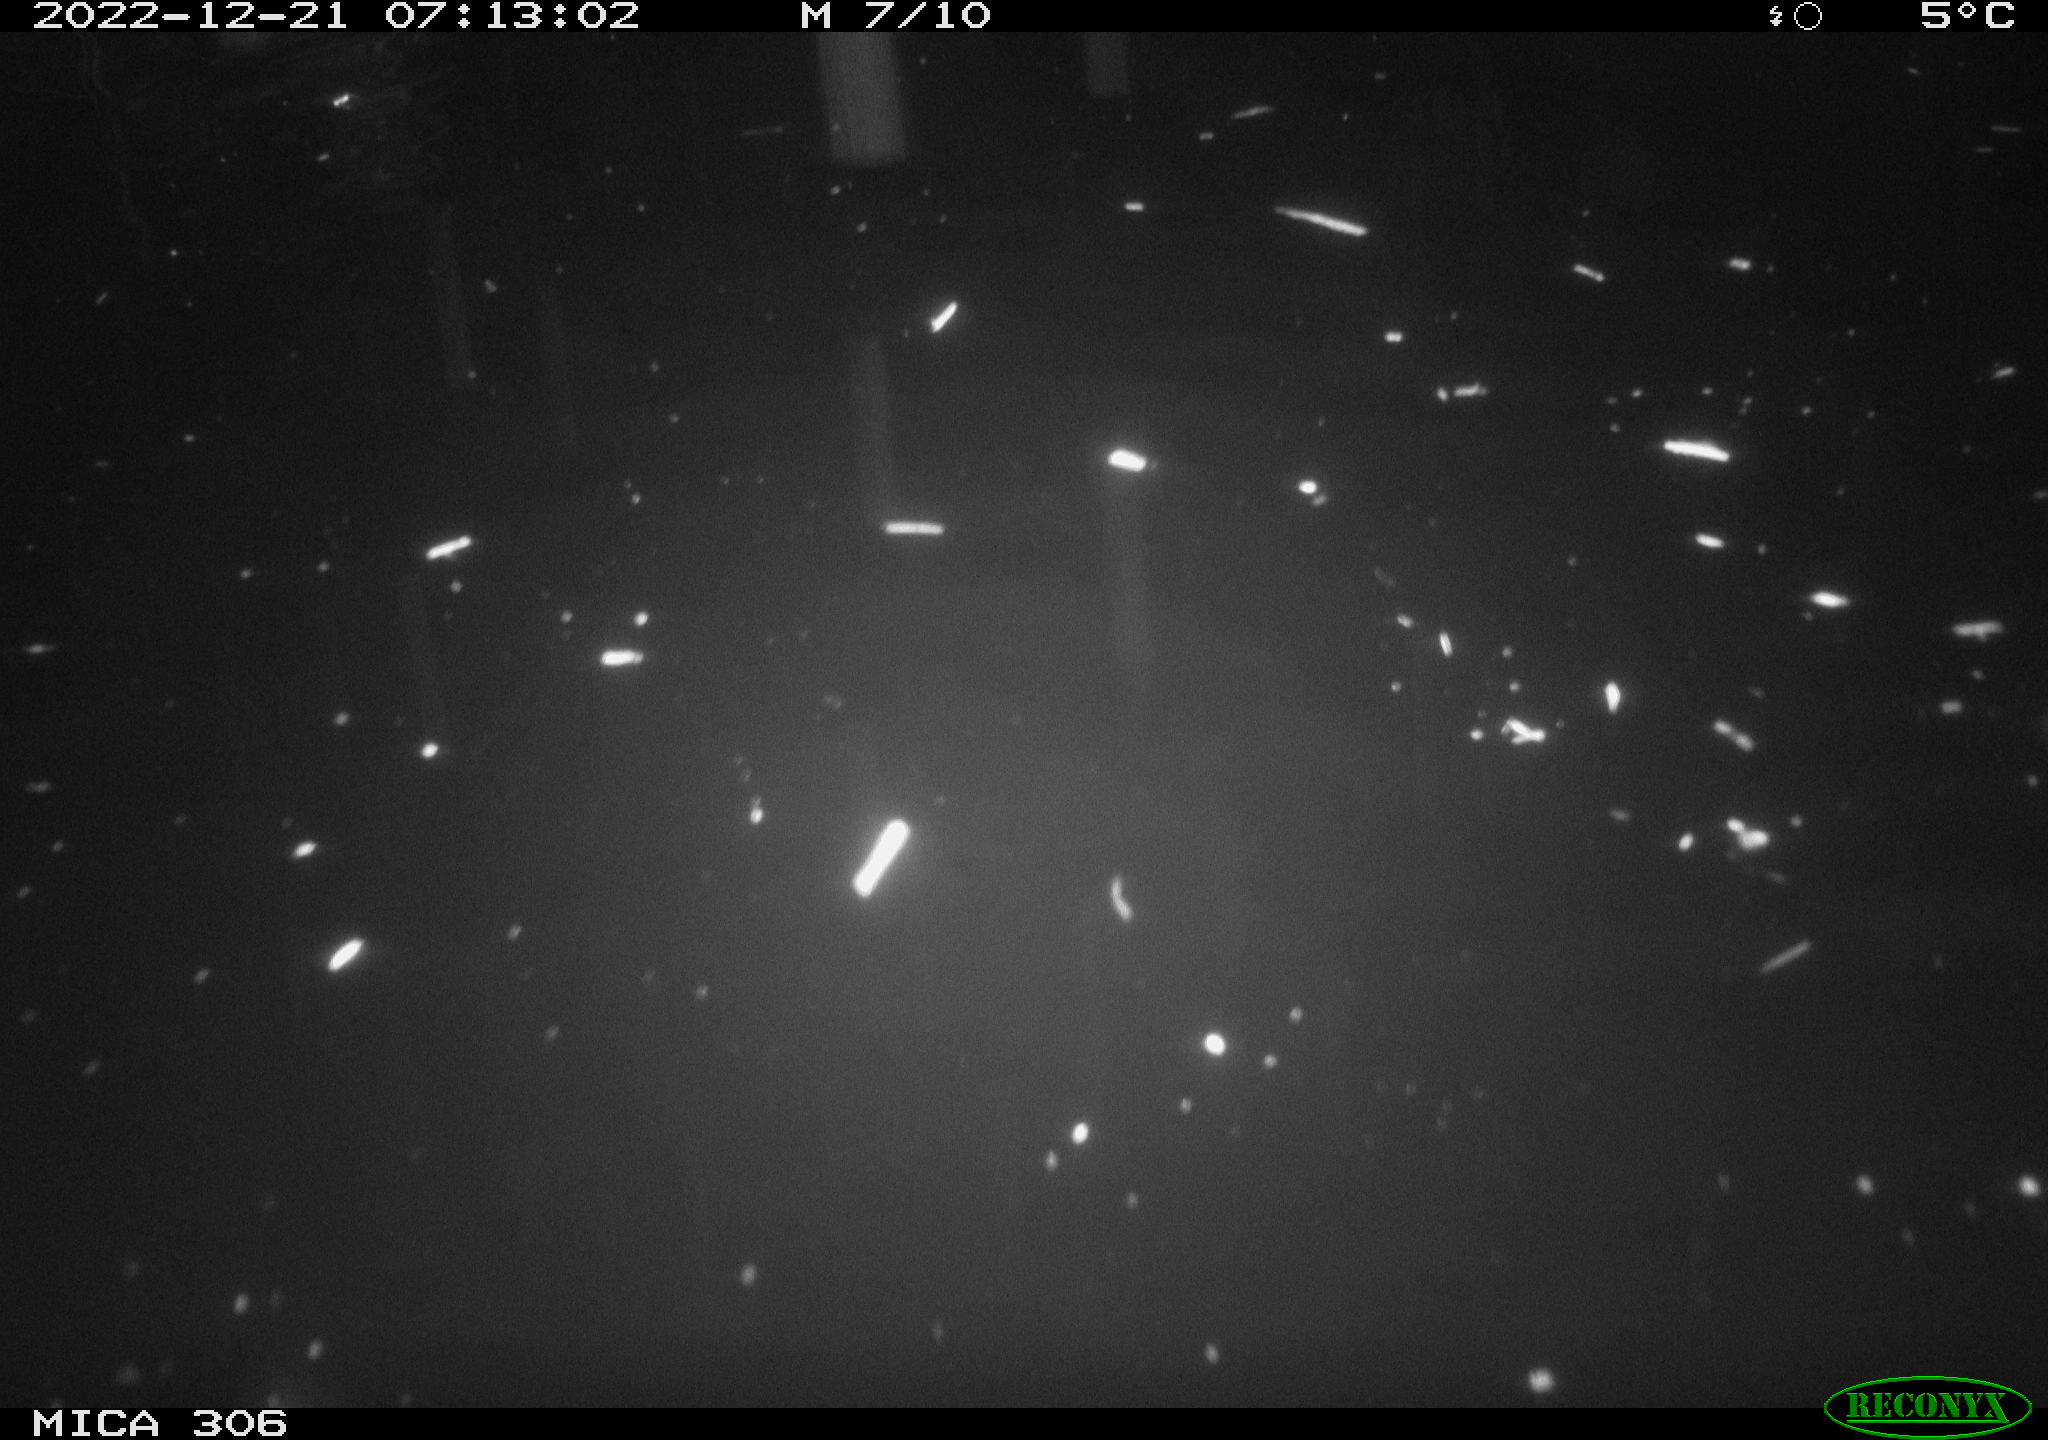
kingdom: Animalia
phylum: Chordata
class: Mammalia
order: Rodentia
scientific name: Rodentia
